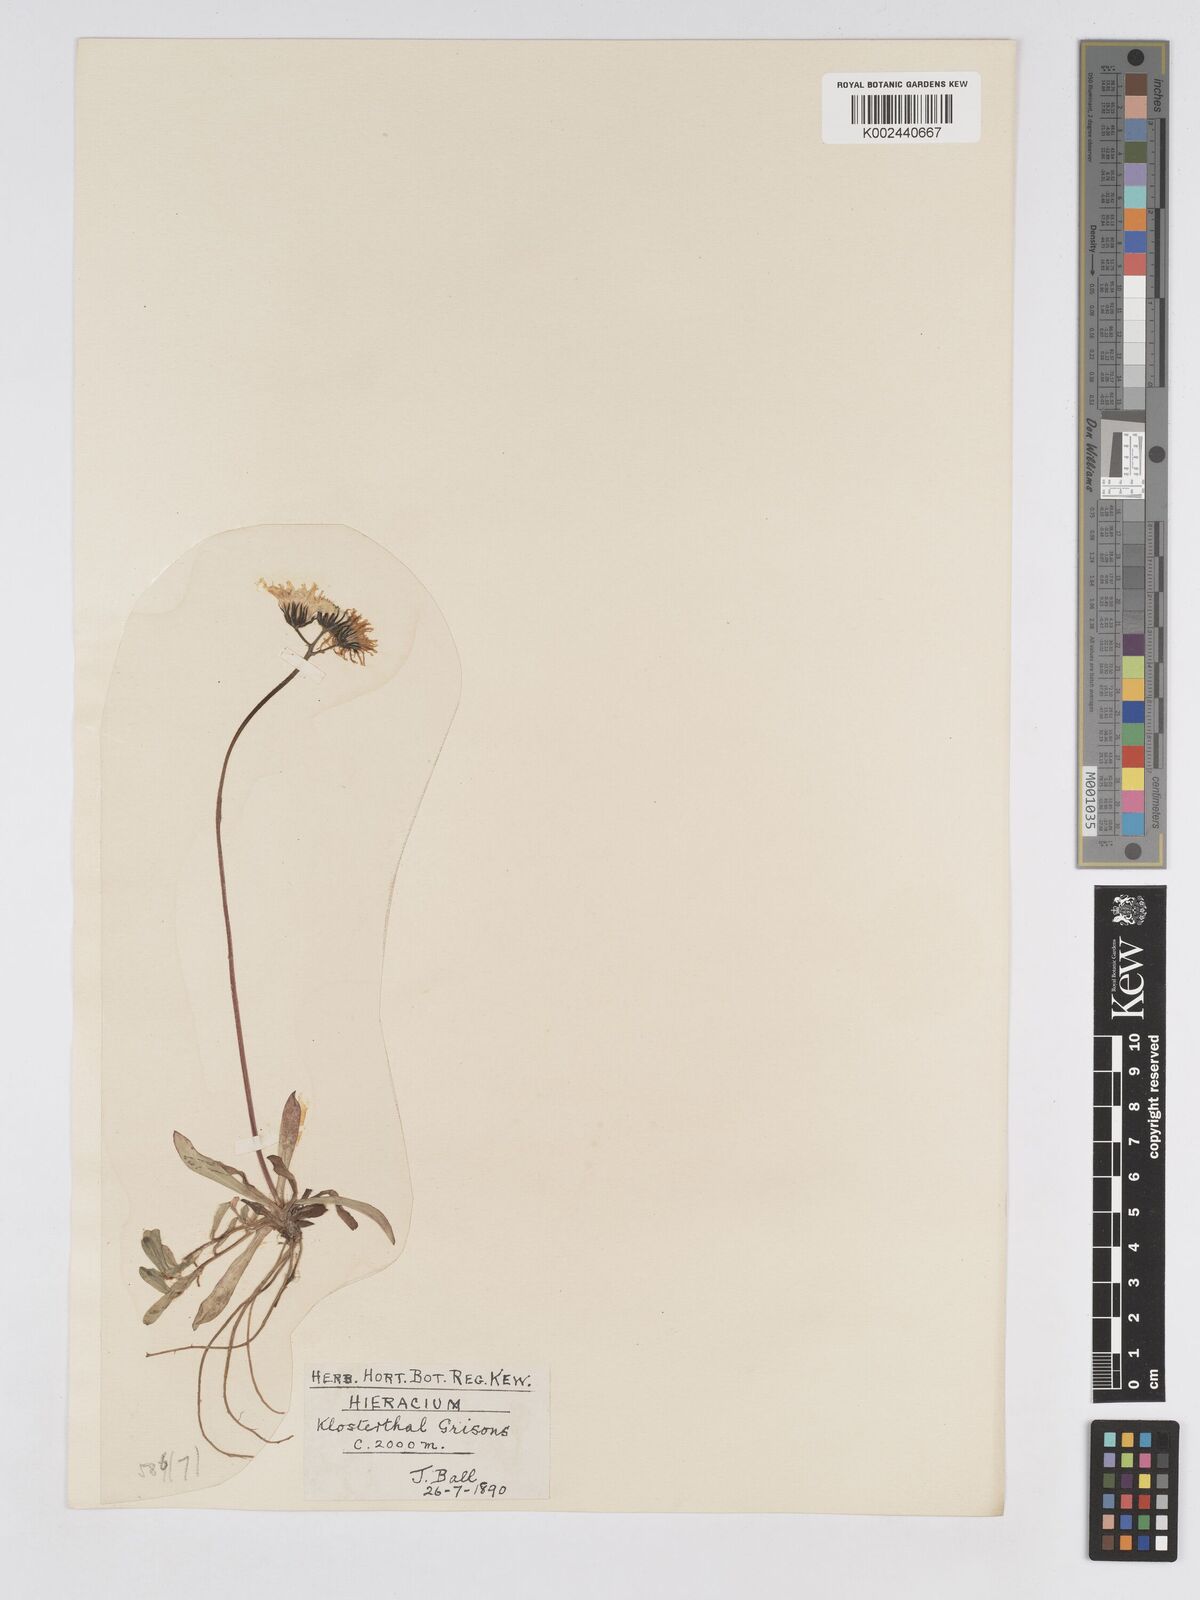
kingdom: Plantae
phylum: Tracheophyta
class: Magnoliopsida
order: Asterales
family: Asteraceae
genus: Pilosella
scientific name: Pilosella floribunda
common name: Glaucous hawkweed
